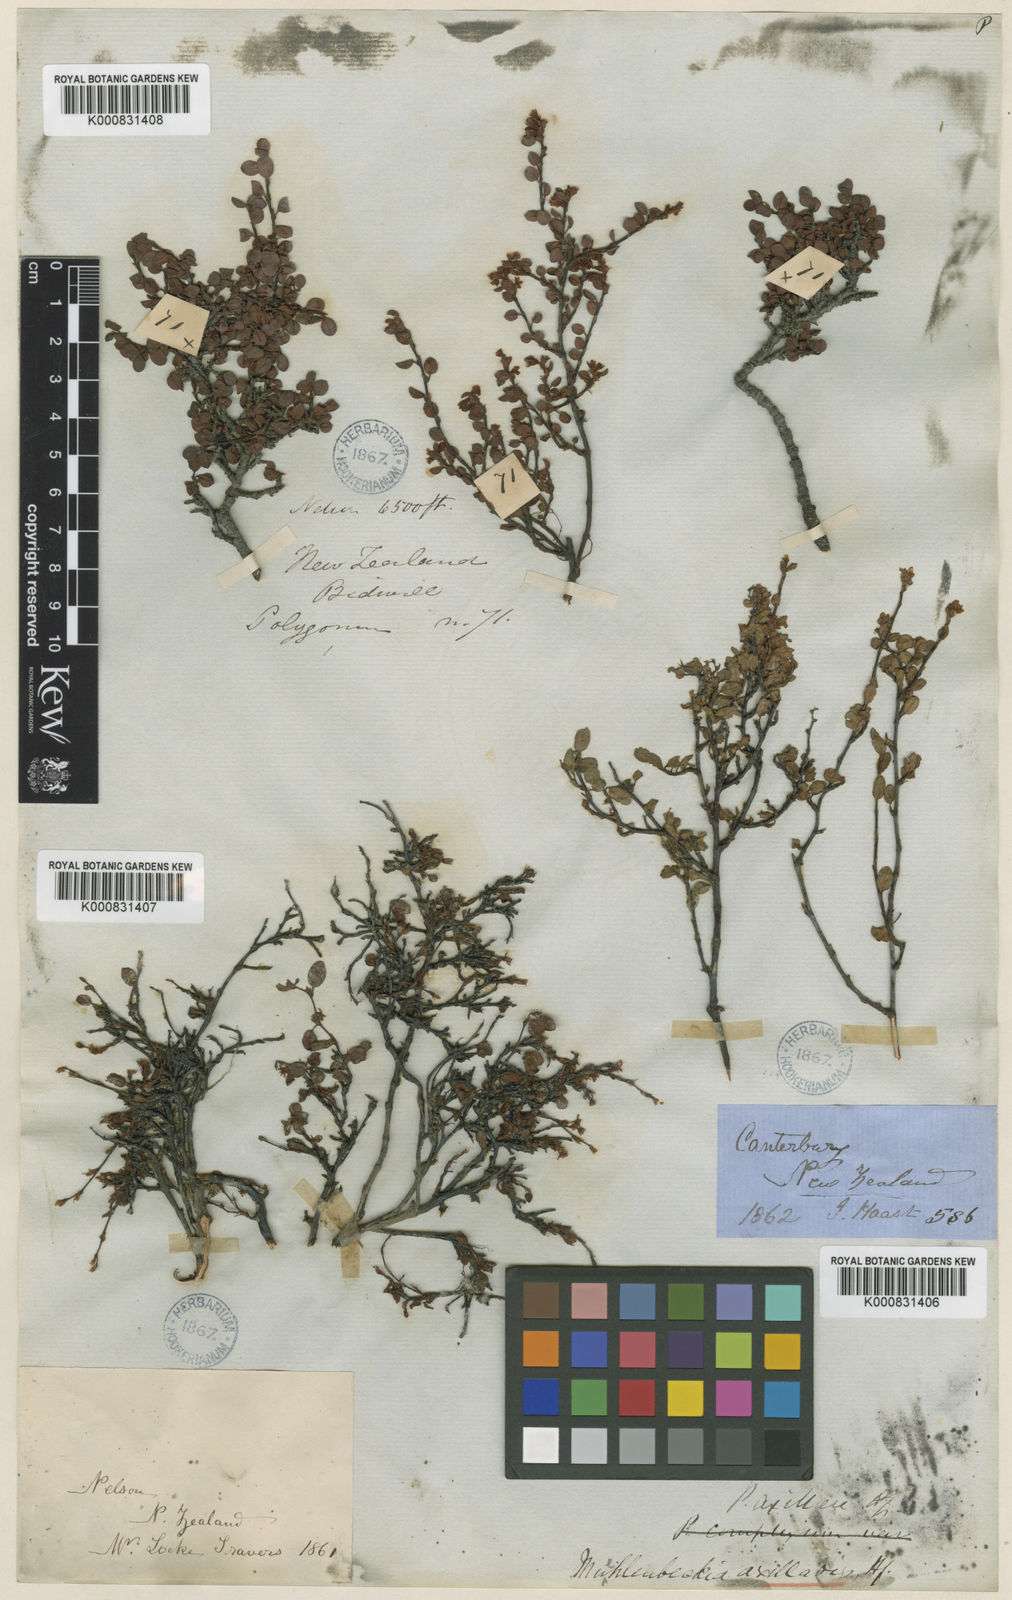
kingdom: Plantae
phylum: Tracheophyta
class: Magnoliopsida
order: Caryophyllales
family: Polygonaceae
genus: Muehlenbeckia
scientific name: Muehlenbeckia axillaris
